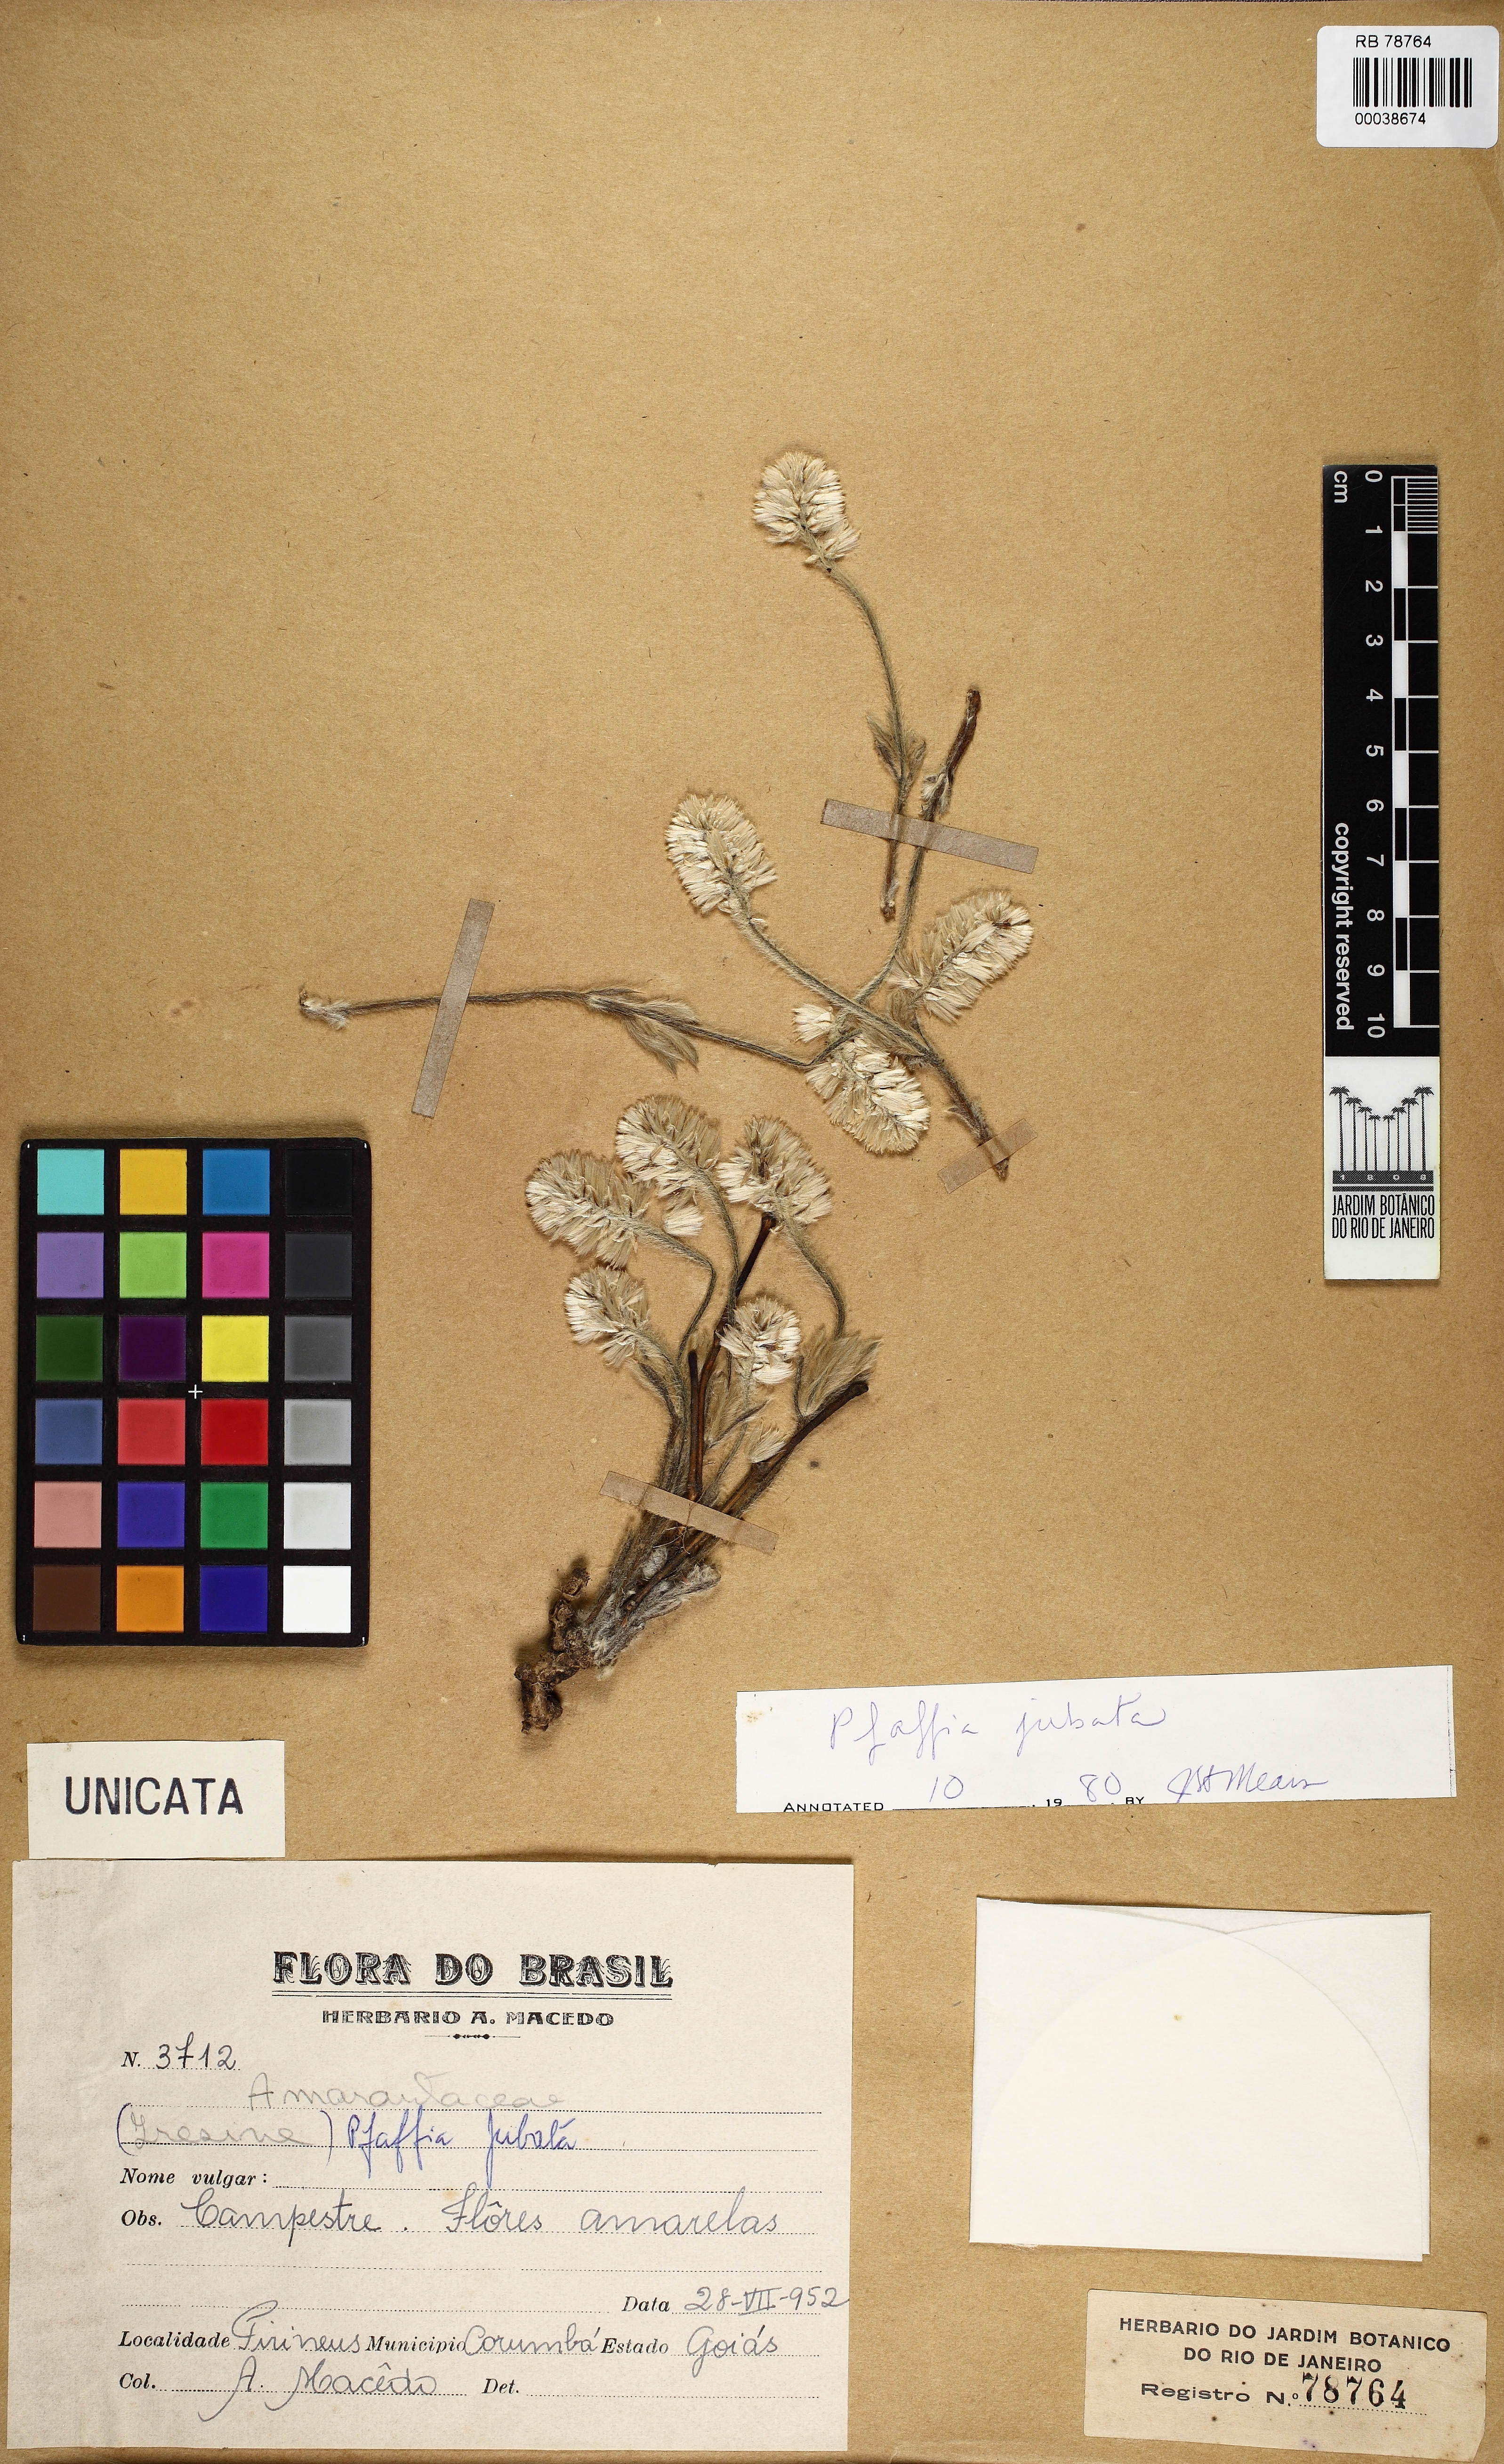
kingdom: Plantae
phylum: Tracheophyta
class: Magnoliopsida
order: Caryophyllales
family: Amaranthaceae
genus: Pfaffia
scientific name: Pfaffia jubata
